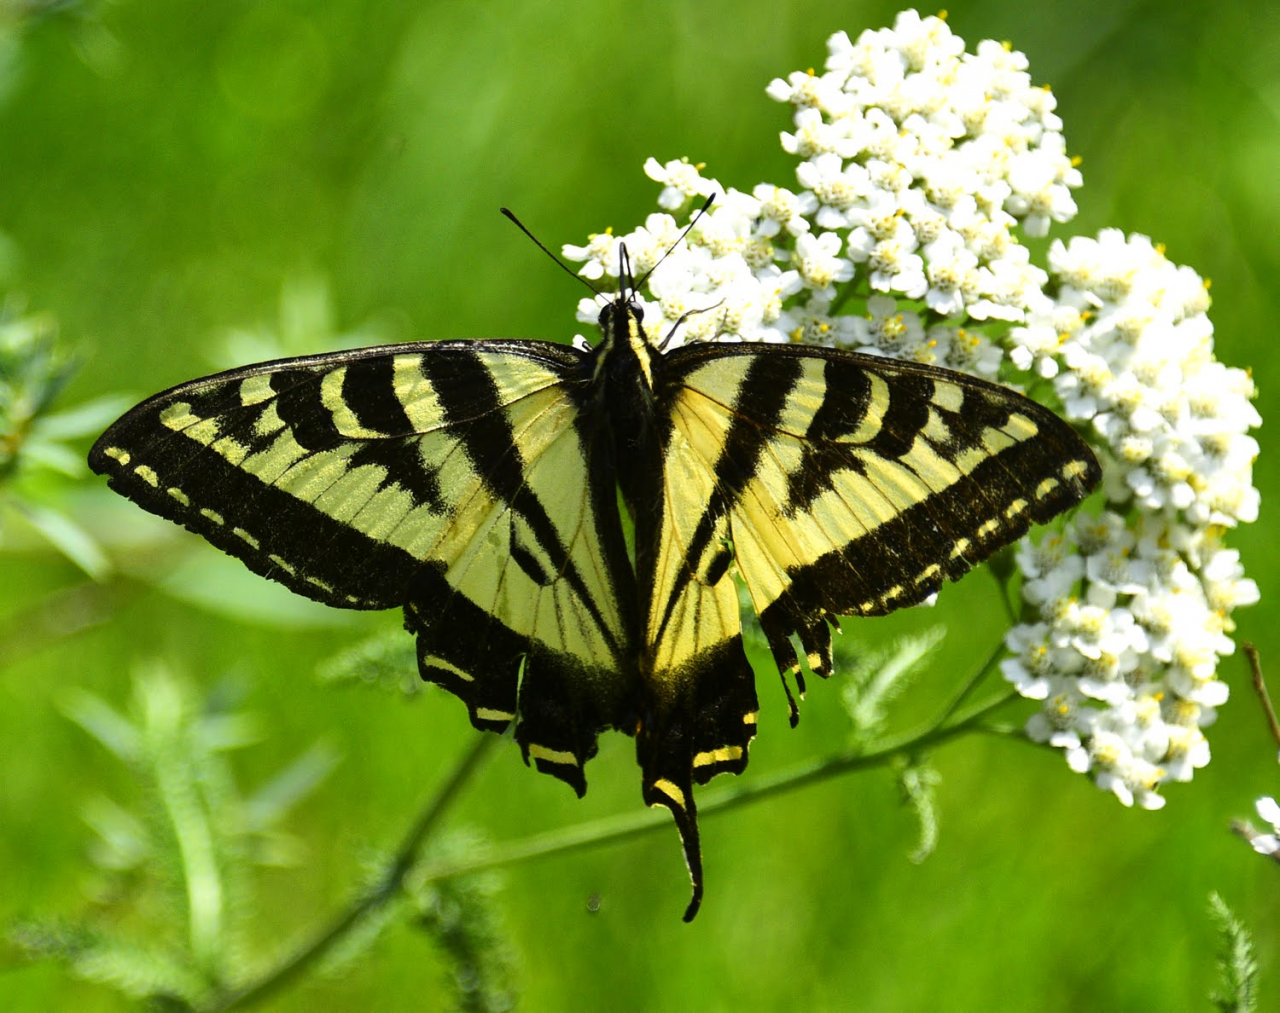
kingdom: Animalia
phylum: Arthropoda
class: Insecta
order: Lepidoptera
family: Papilionidae
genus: Pterourus
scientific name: Pterourus rutulus
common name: Western Tiger Swallowtail
